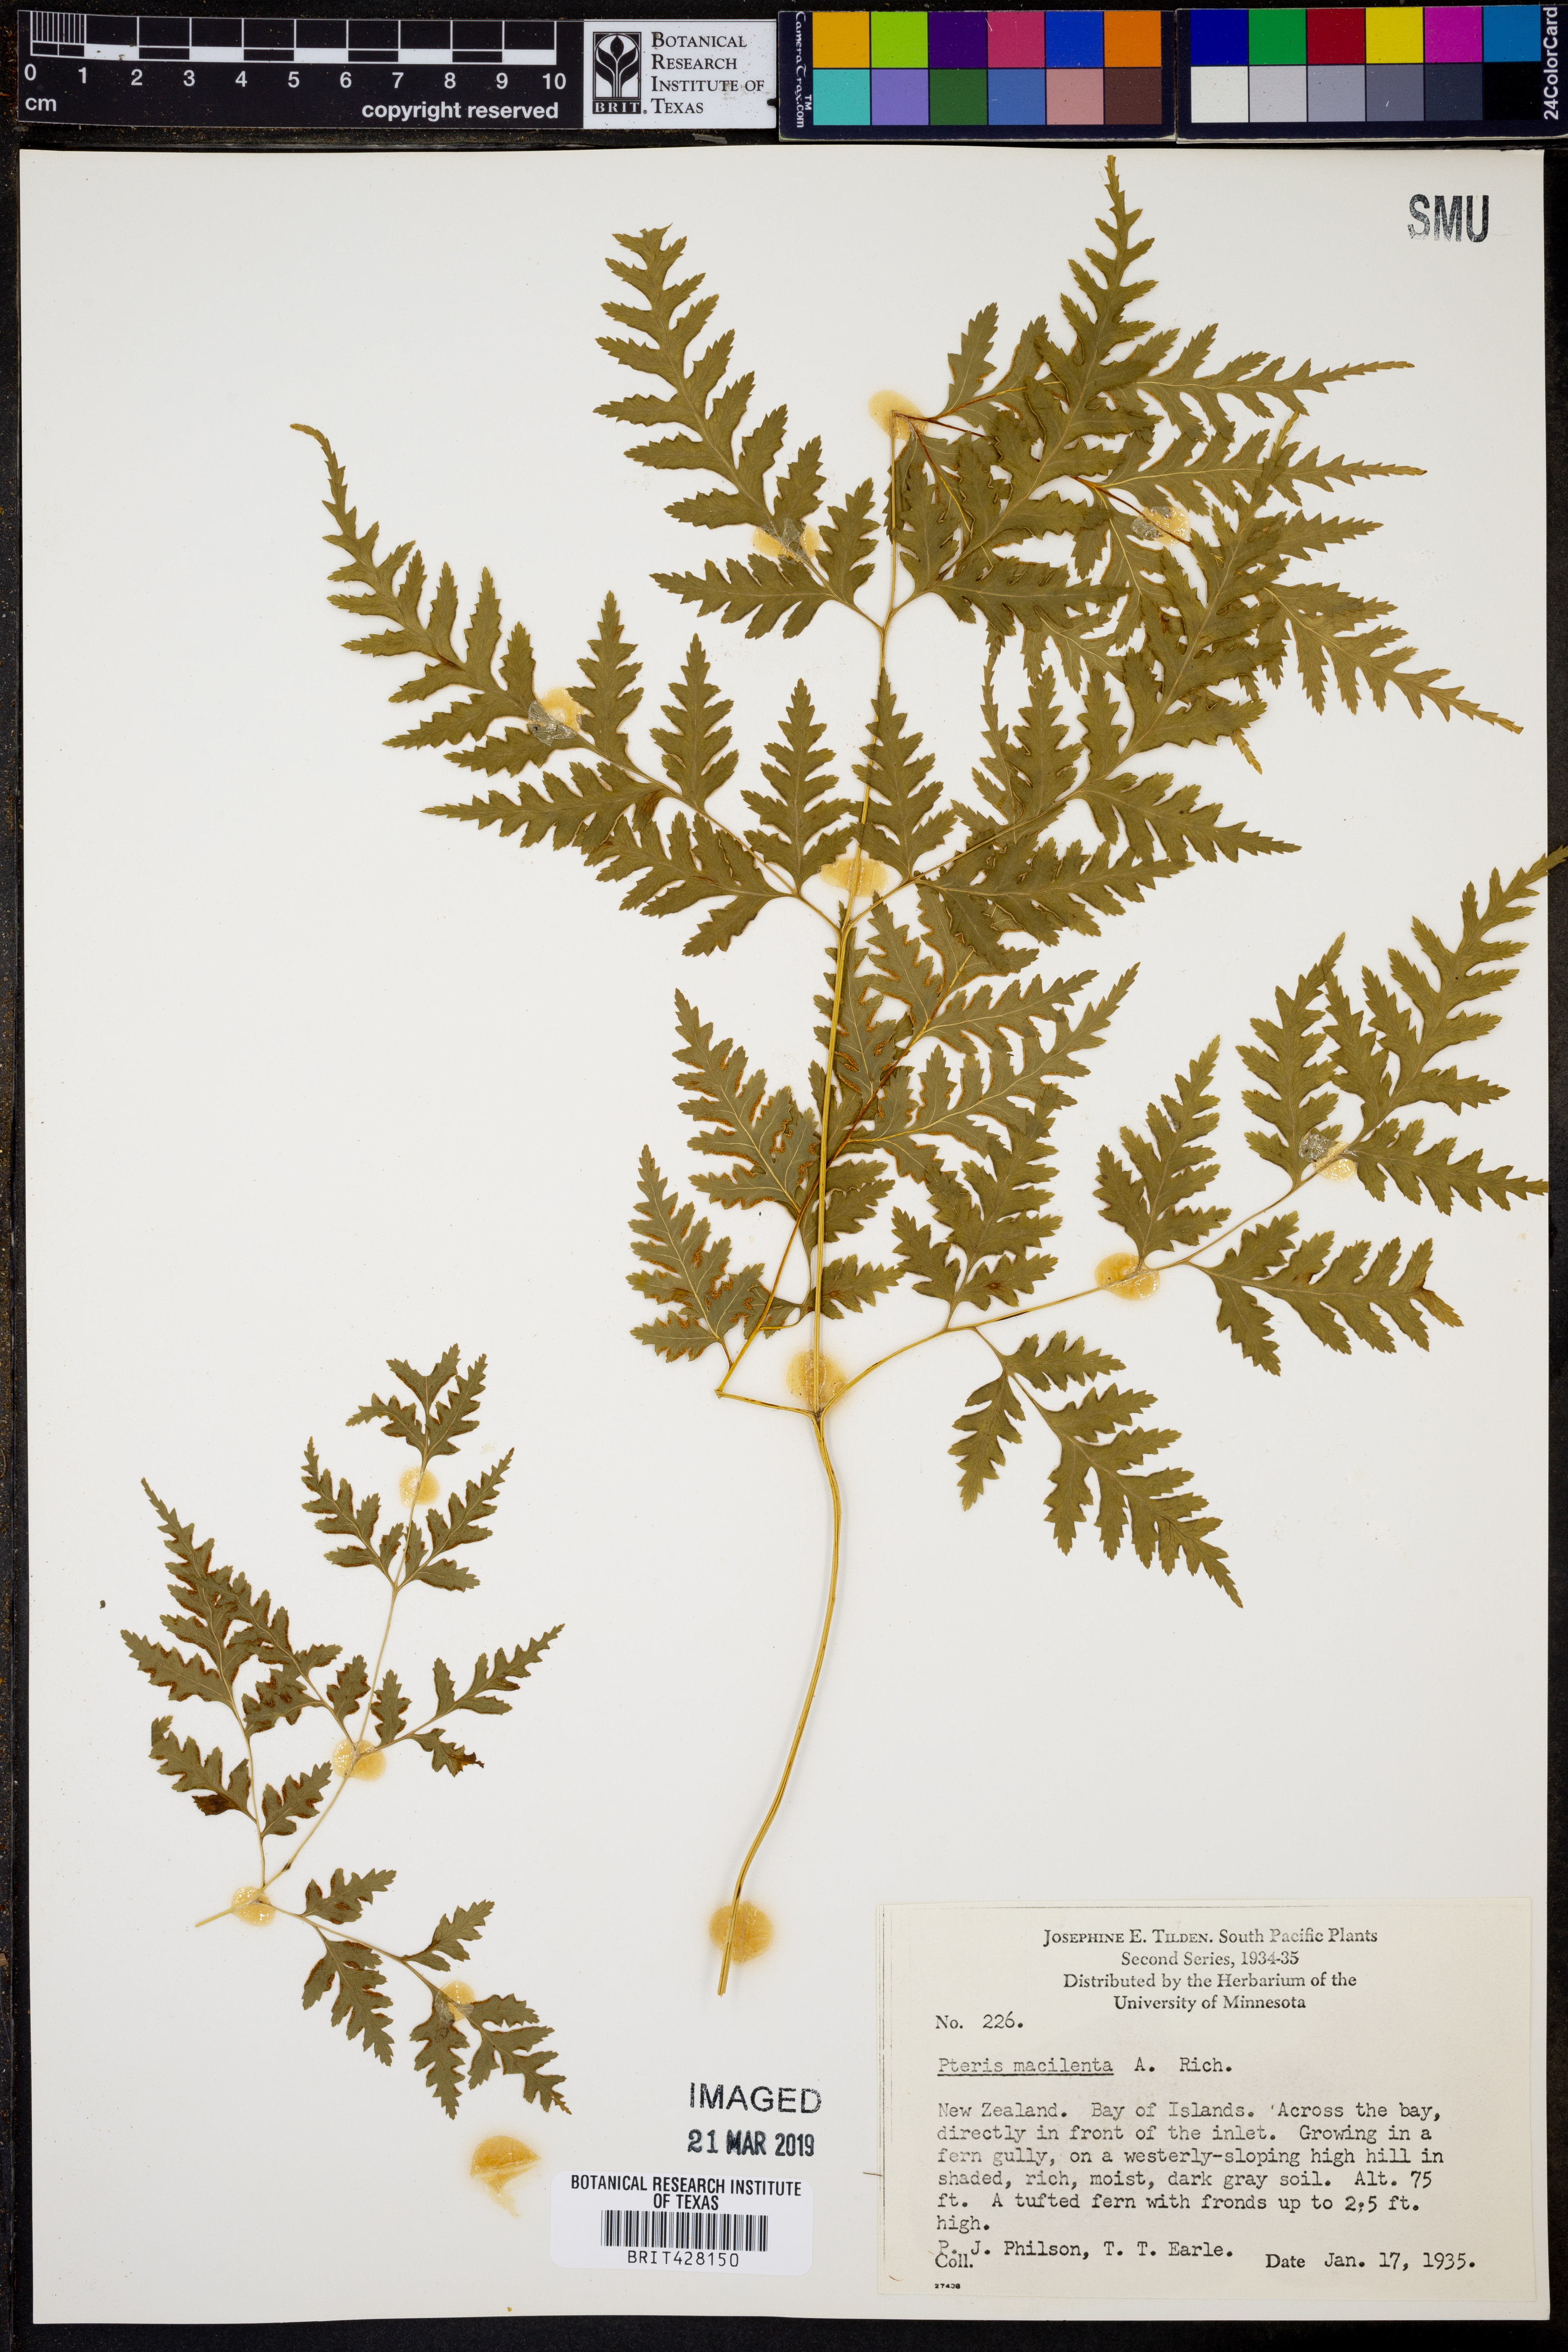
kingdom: Plantae
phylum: Tracheophyta
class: Polypodiopsida
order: Polypodiales
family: Pteridaceae
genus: Pteris
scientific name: Pteris macilenta
